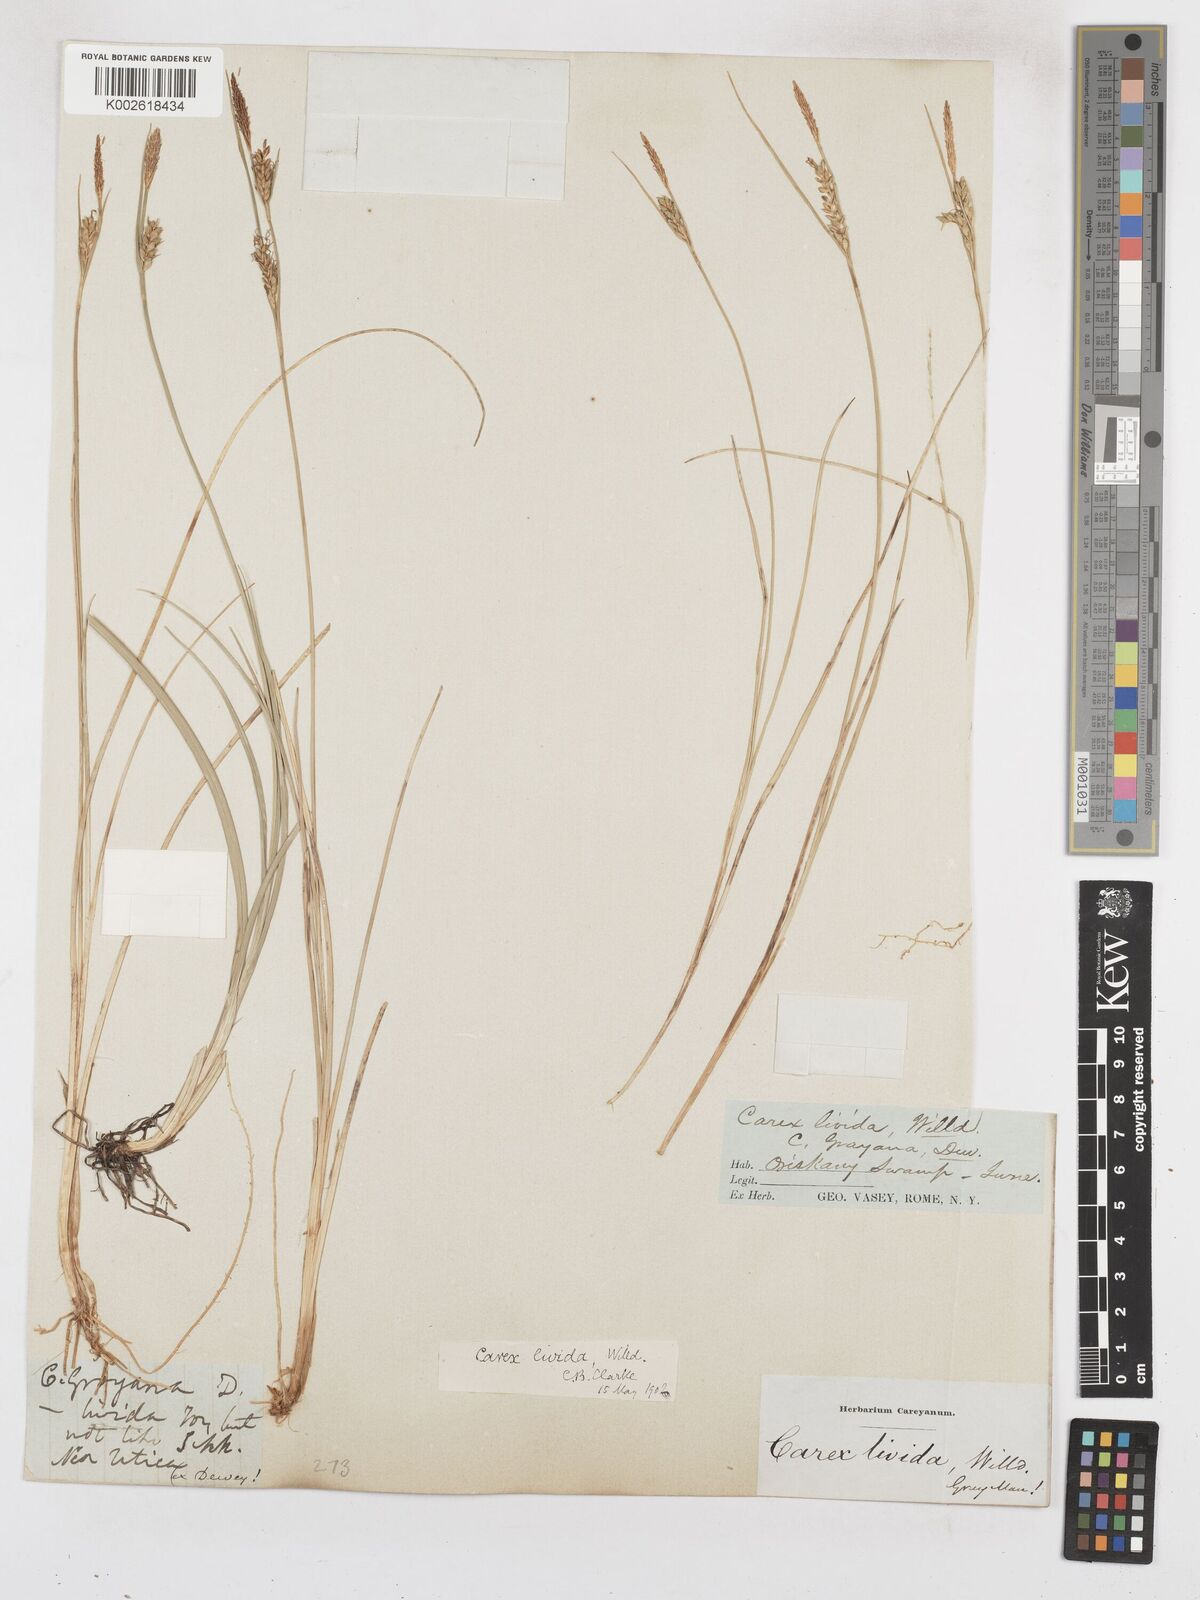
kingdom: Plantae
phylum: Tracheophyta
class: Liliopsida
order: Poales
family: Cyperaceae
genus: Carex
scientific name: Carex livida
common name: Livid sedge
